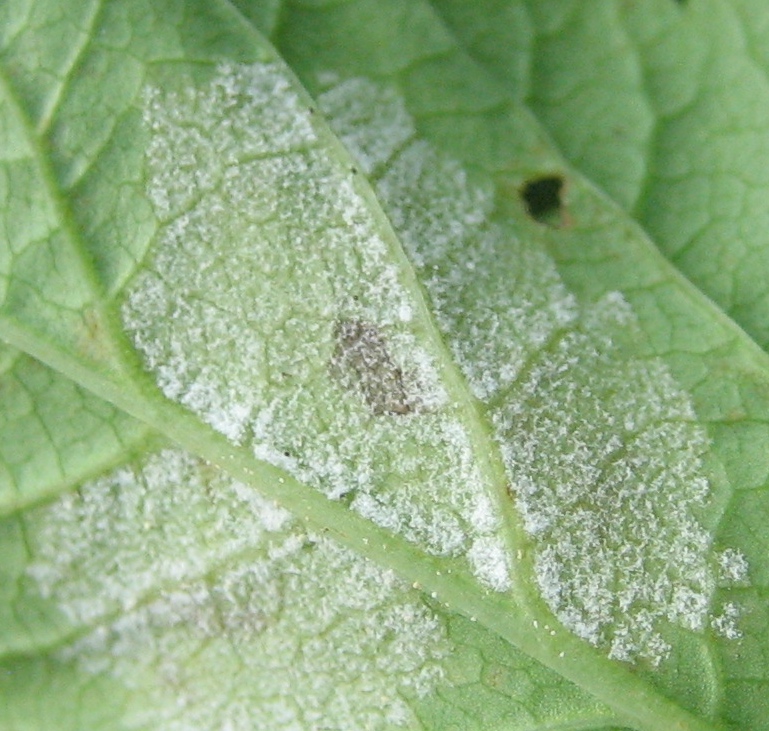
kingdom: Chromista
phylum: Oomycota
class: Peronosporea
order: Peronosporales
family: Peronosporaceae
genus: Peronospora
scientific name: Peronospora crustosa
